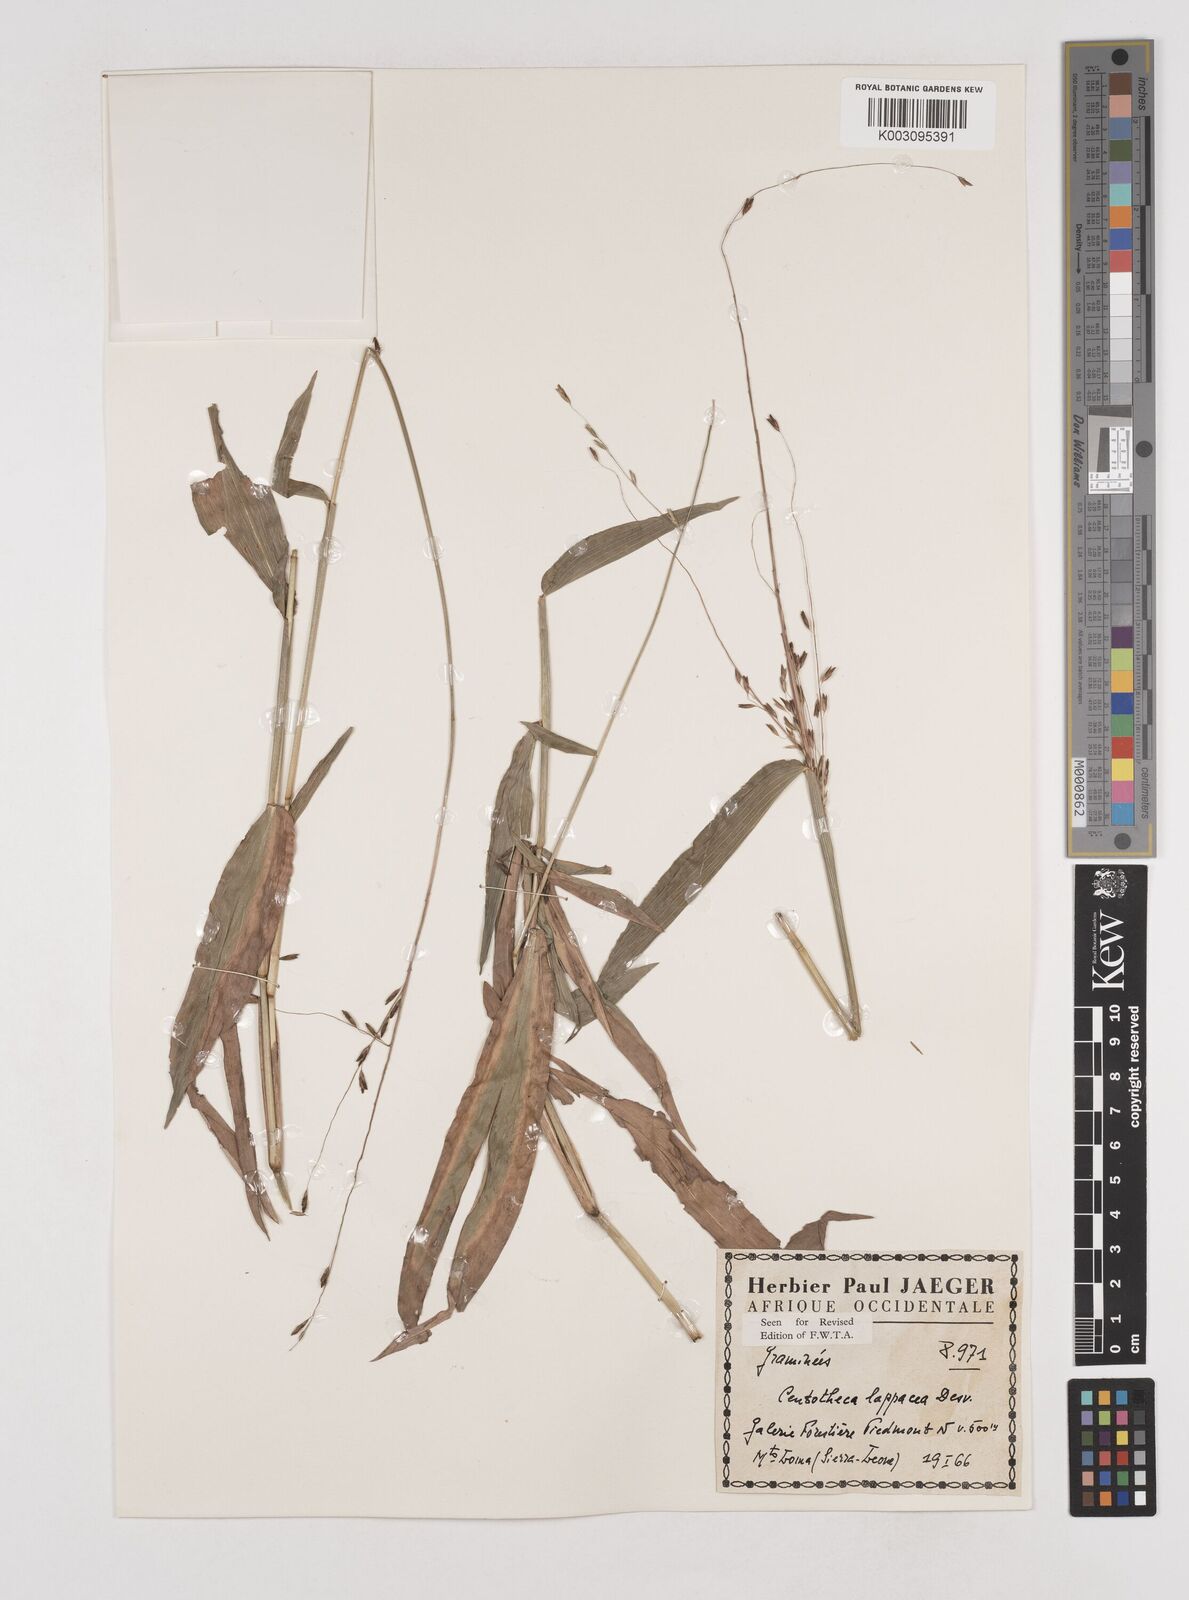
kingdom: Plantae
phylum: Tracheophyta
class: Liliopsida
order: Poales
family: Poaceae
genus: Centotheca
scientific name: Centotheca lappacea
